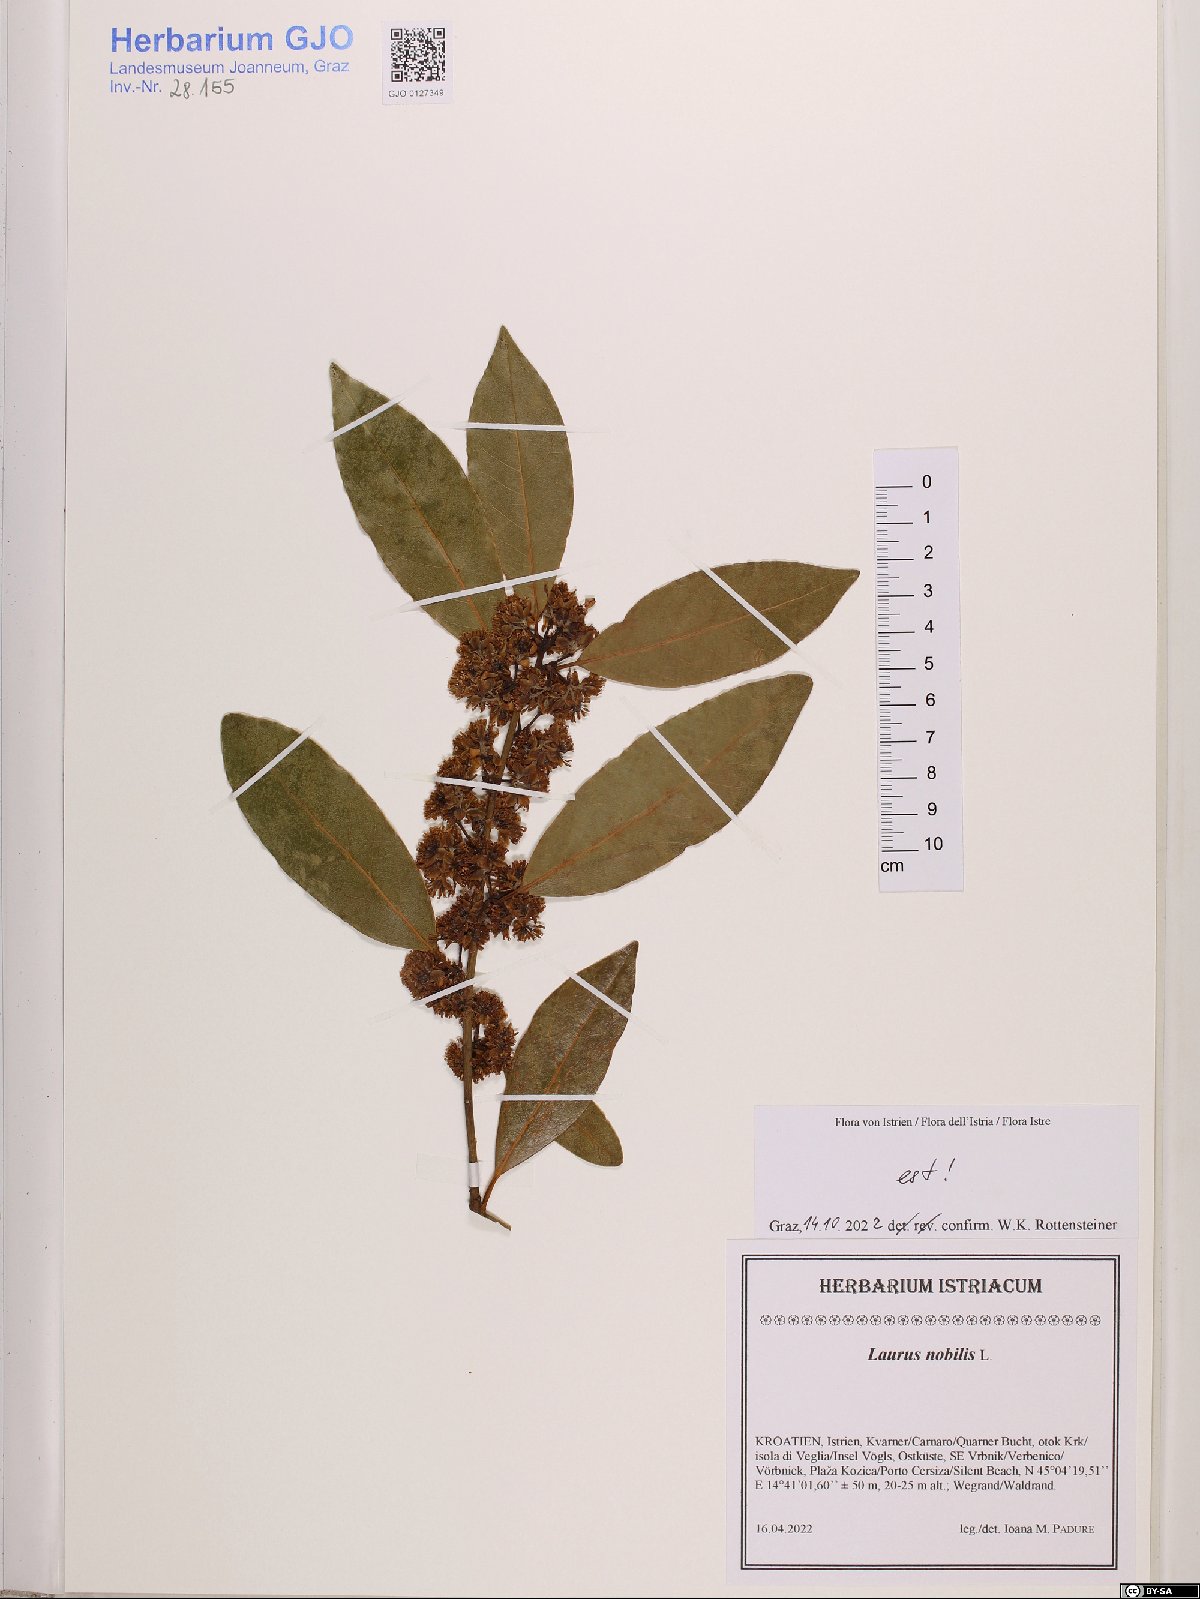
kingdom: Plantae
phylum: Tracheophyta
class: Magnoliopsida
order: Laurales
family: Lauraceae
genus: Laurus
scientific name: Laurus nobilis
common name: Bay
